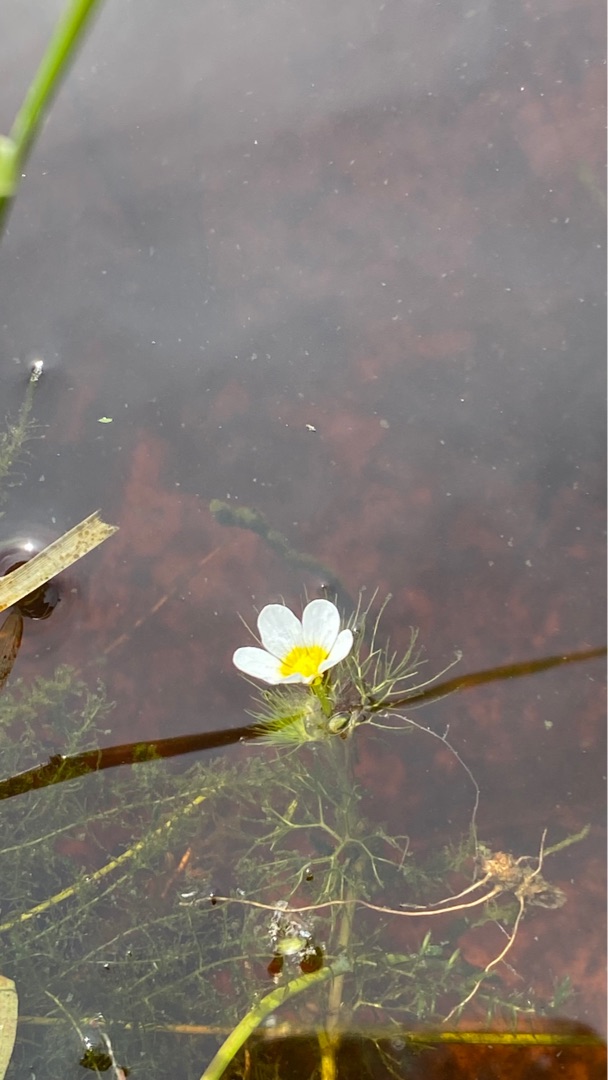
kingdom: Plantae
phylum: Tracheophyta
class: Magnoliopsida
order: Ranunculales
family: Ranunculaceae
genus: Ranunculus
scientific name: Ranunculus trichophyllus
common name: Hårfliget vandranunkel
